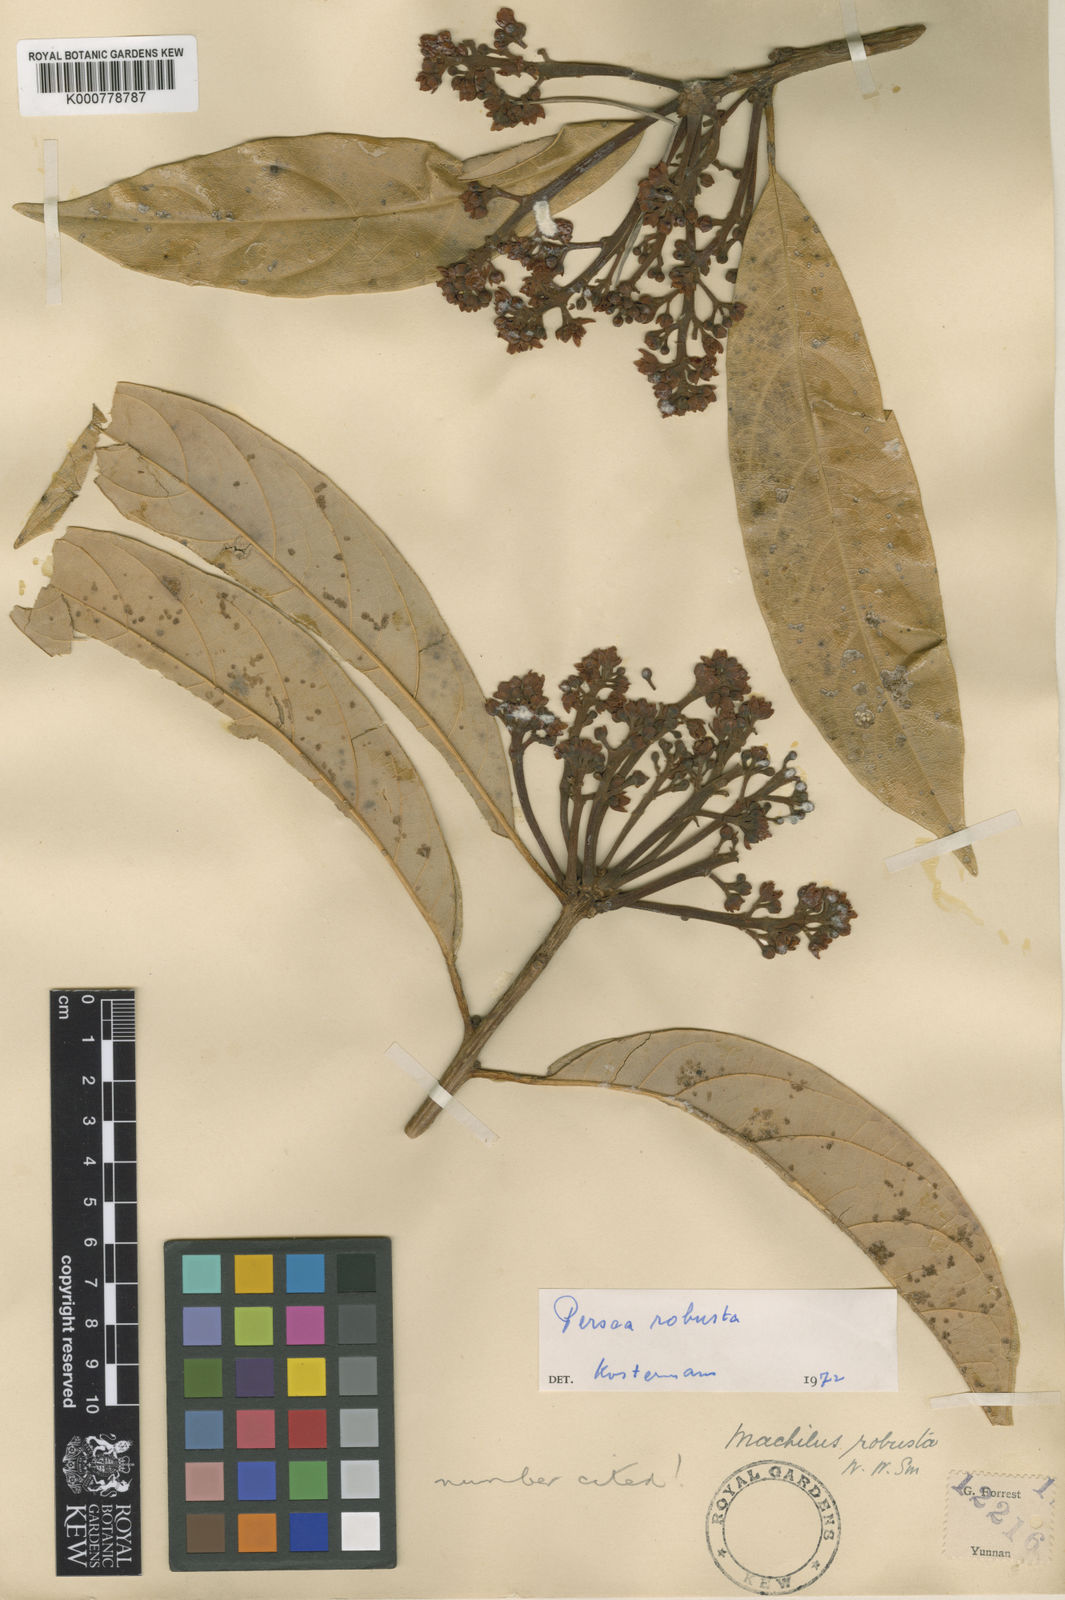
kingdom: Plantae
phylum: Tracheophyta
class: Magnoliopsida
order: Laurales
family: Lauraceae
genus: Machilus
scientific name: Machilus robustus
